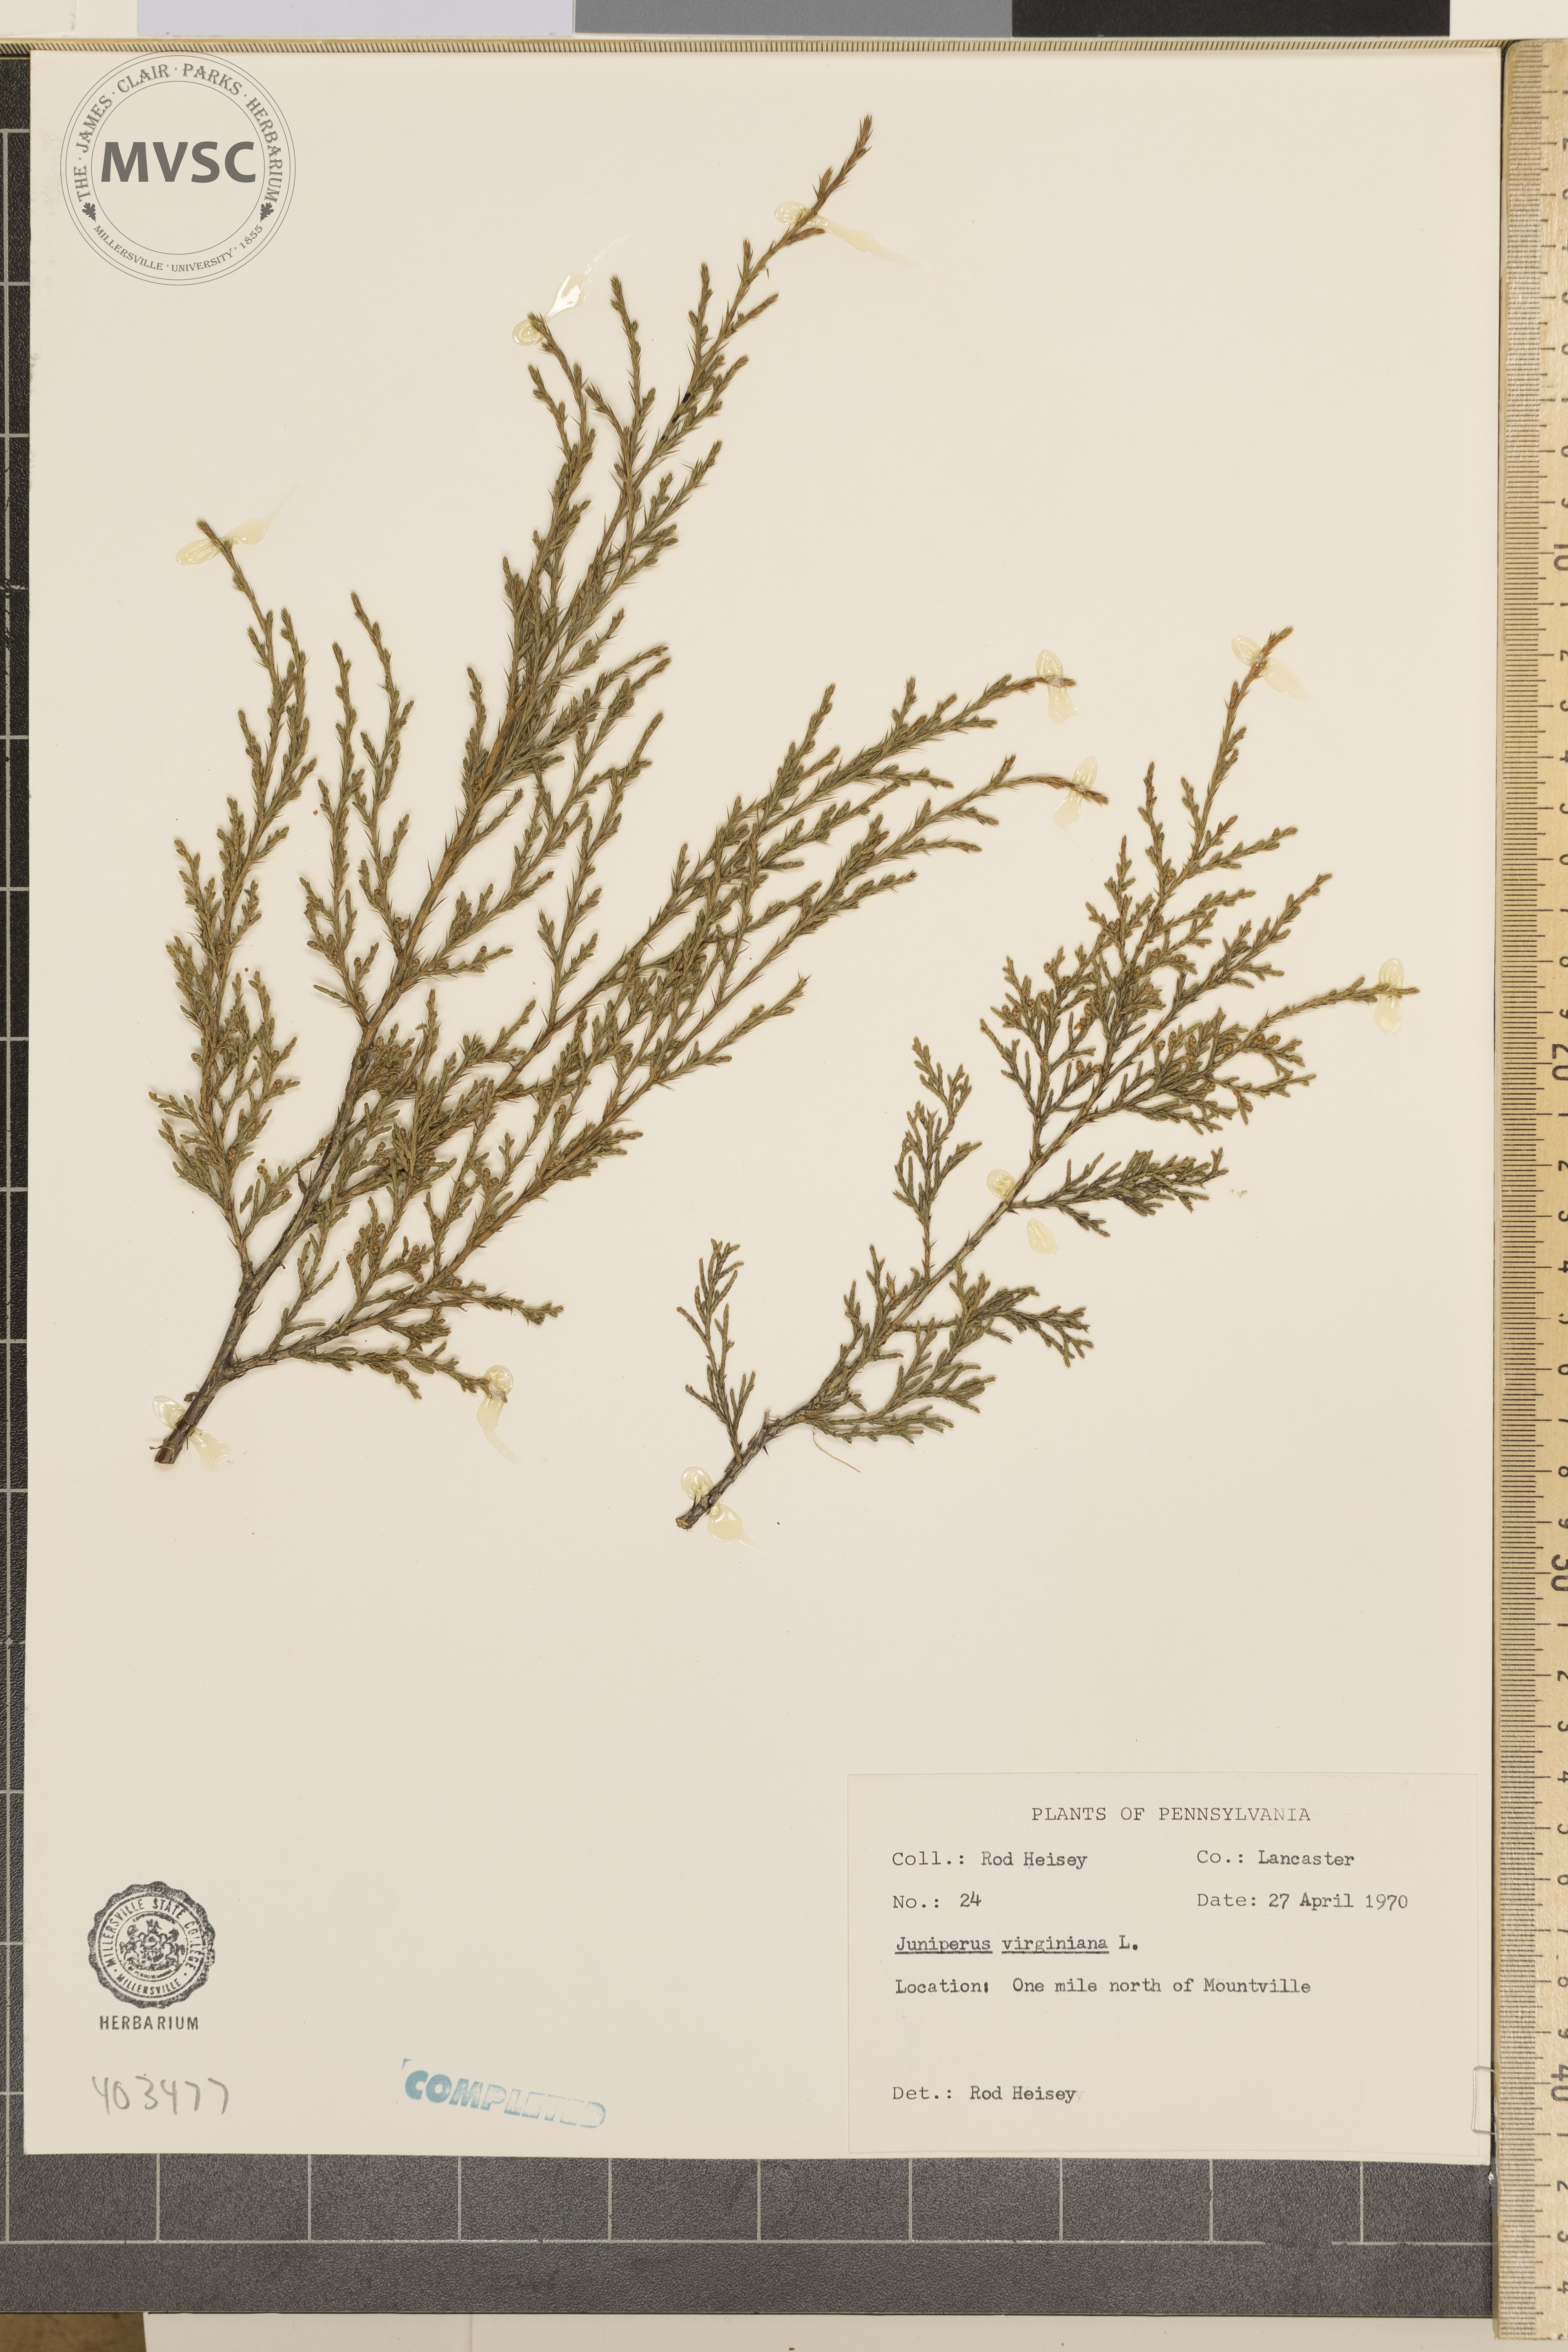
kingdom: Plantae
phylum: Tracheophyta
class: Pinopsida
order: Pinales
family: Cupressaceae
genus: Juniperus
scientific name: Juniperus virginiana
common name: Eastern redcedar
